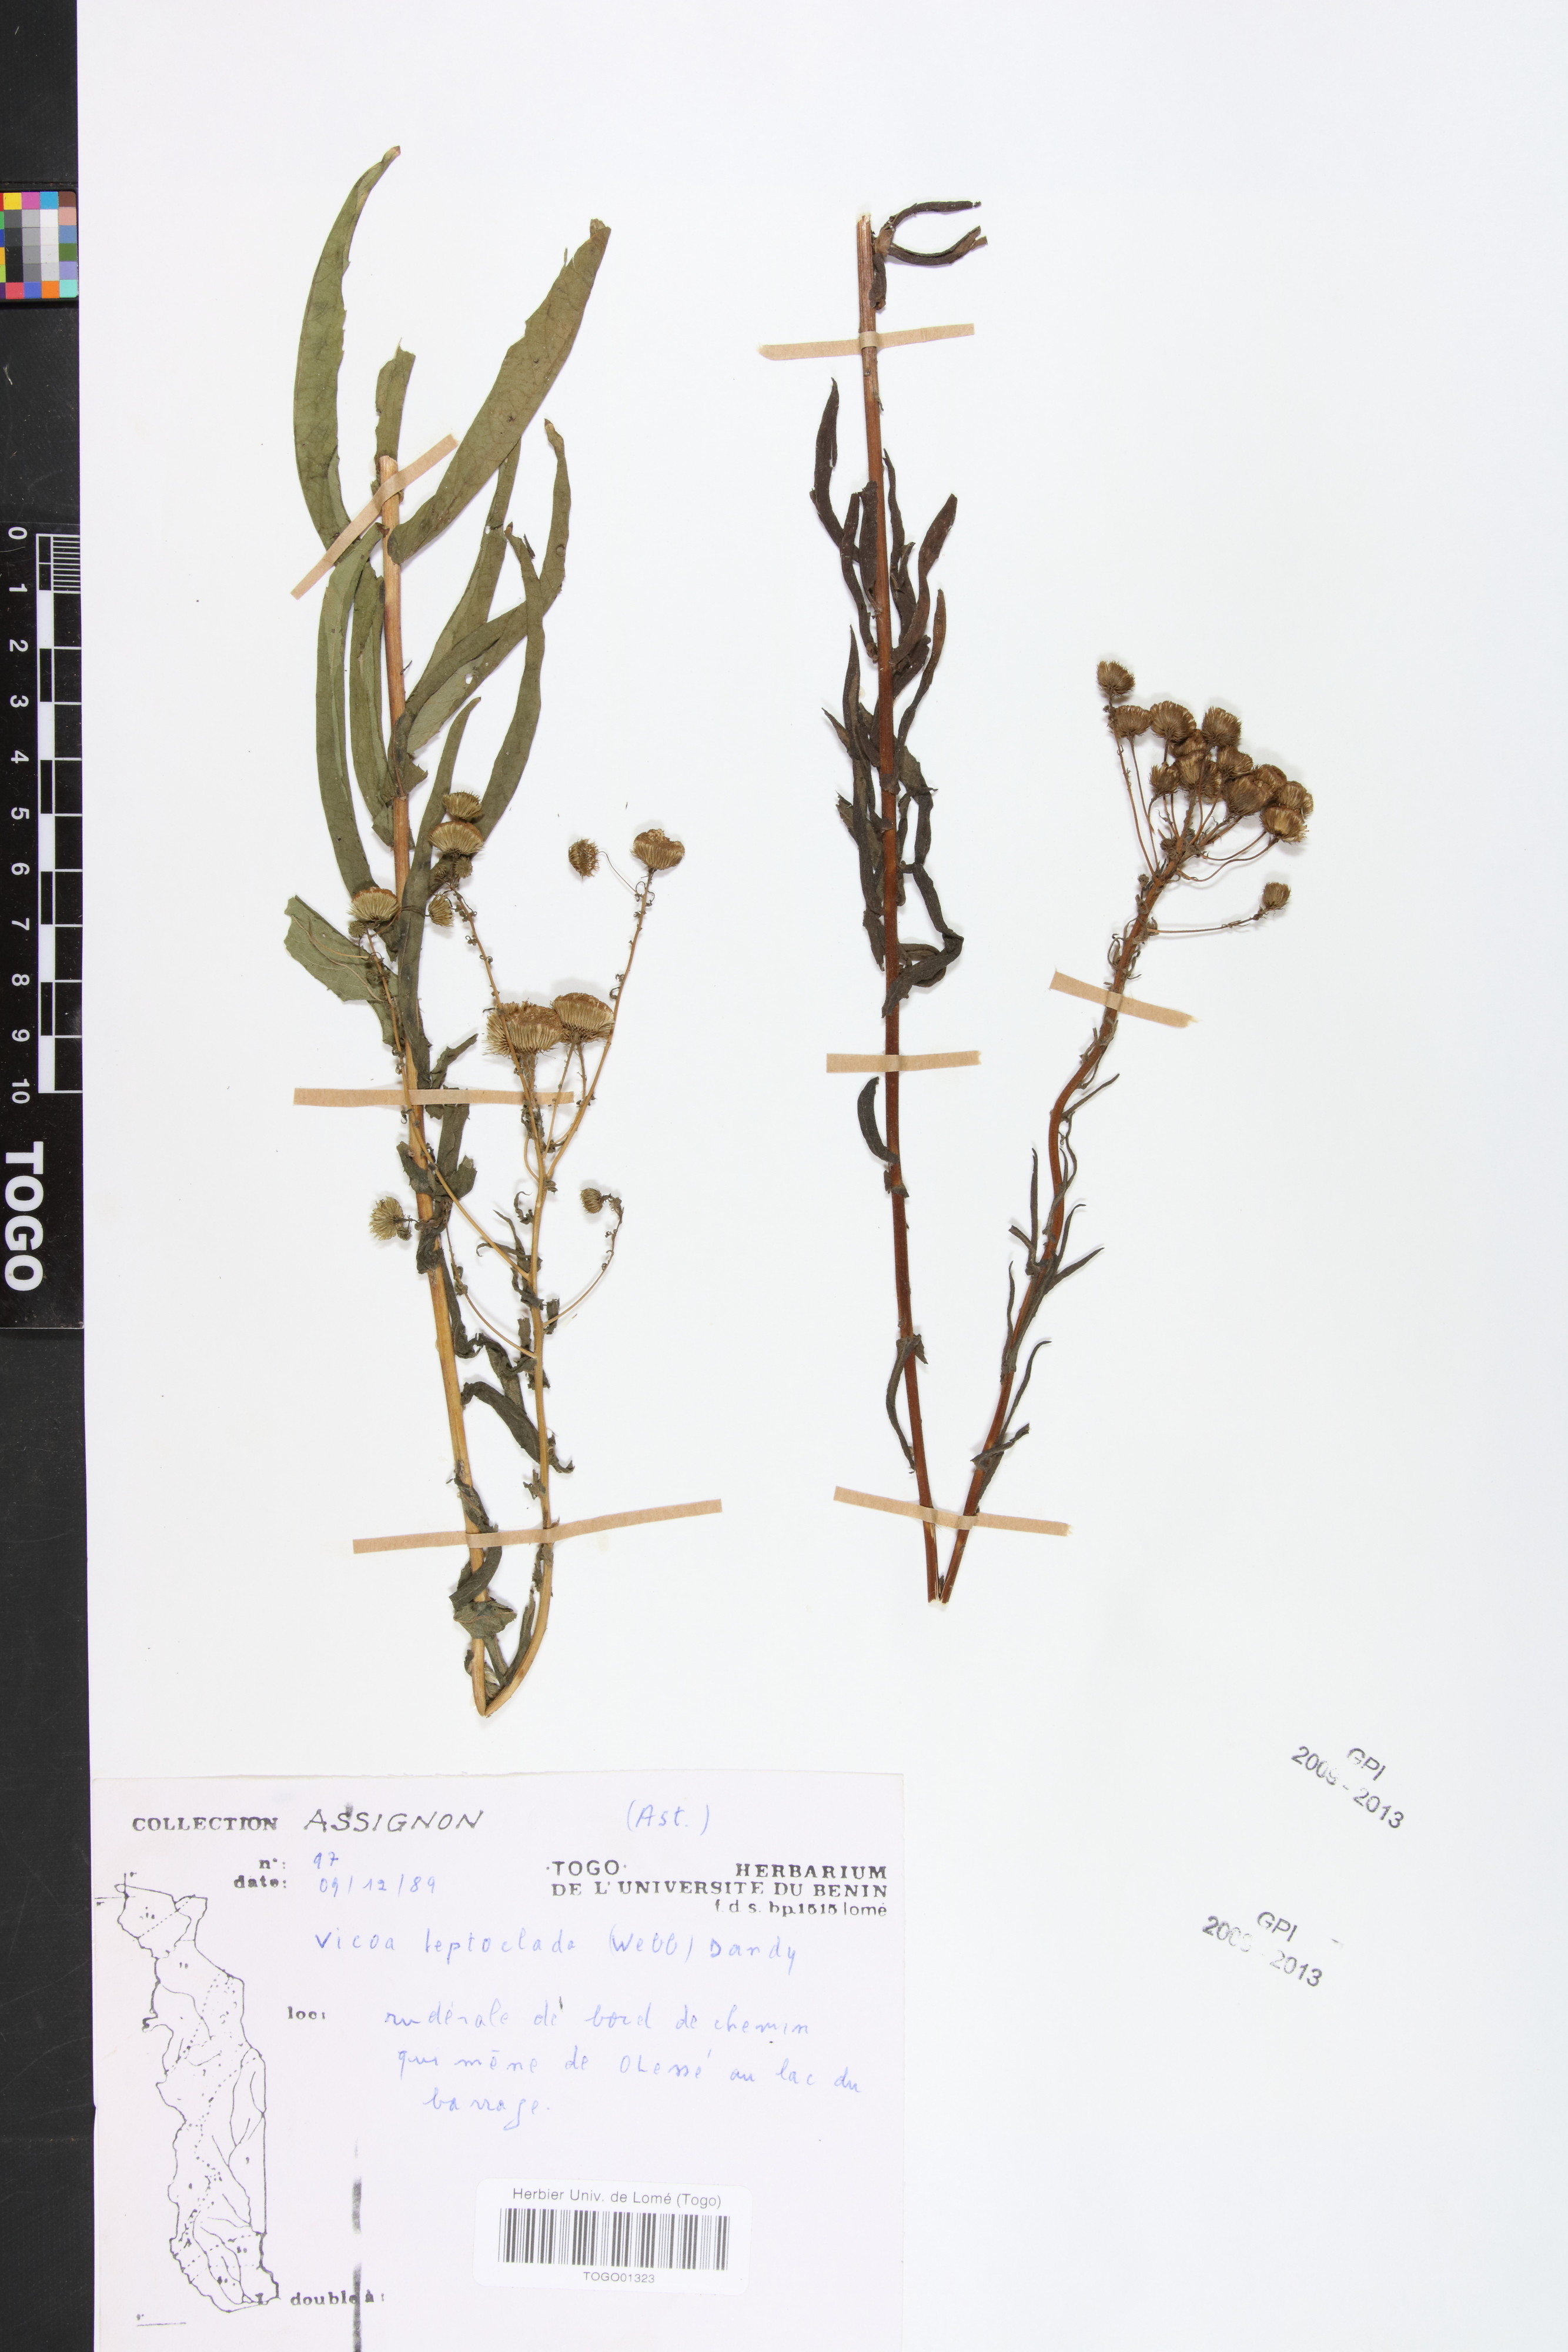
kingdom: Plantae
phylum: Tracheophyta
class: Magnoliopsida
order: Asterales
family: Asteraceae
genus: Vicoa
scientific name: Vicoa indica
